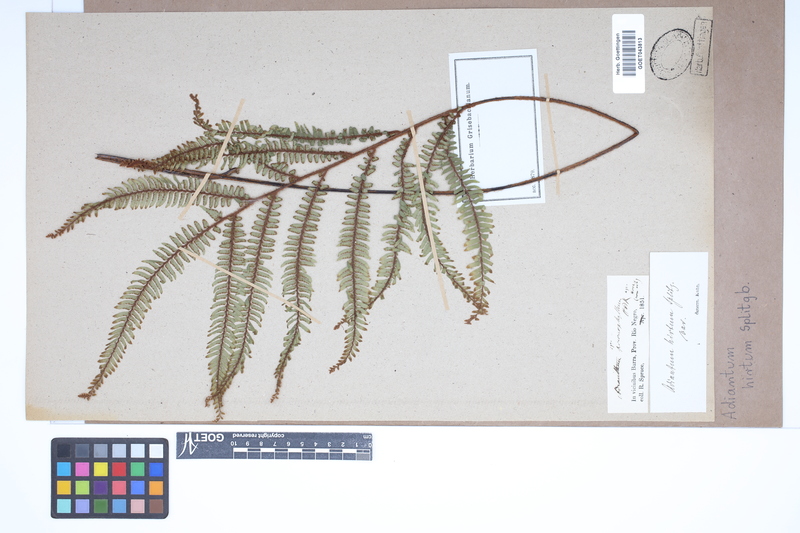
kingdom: Plantae
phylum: Tracheophyta
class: Polypodiopsida
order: Polypodiales
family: Pteridaceae
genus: Adiantum
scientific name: Adiantum fuliginosum
